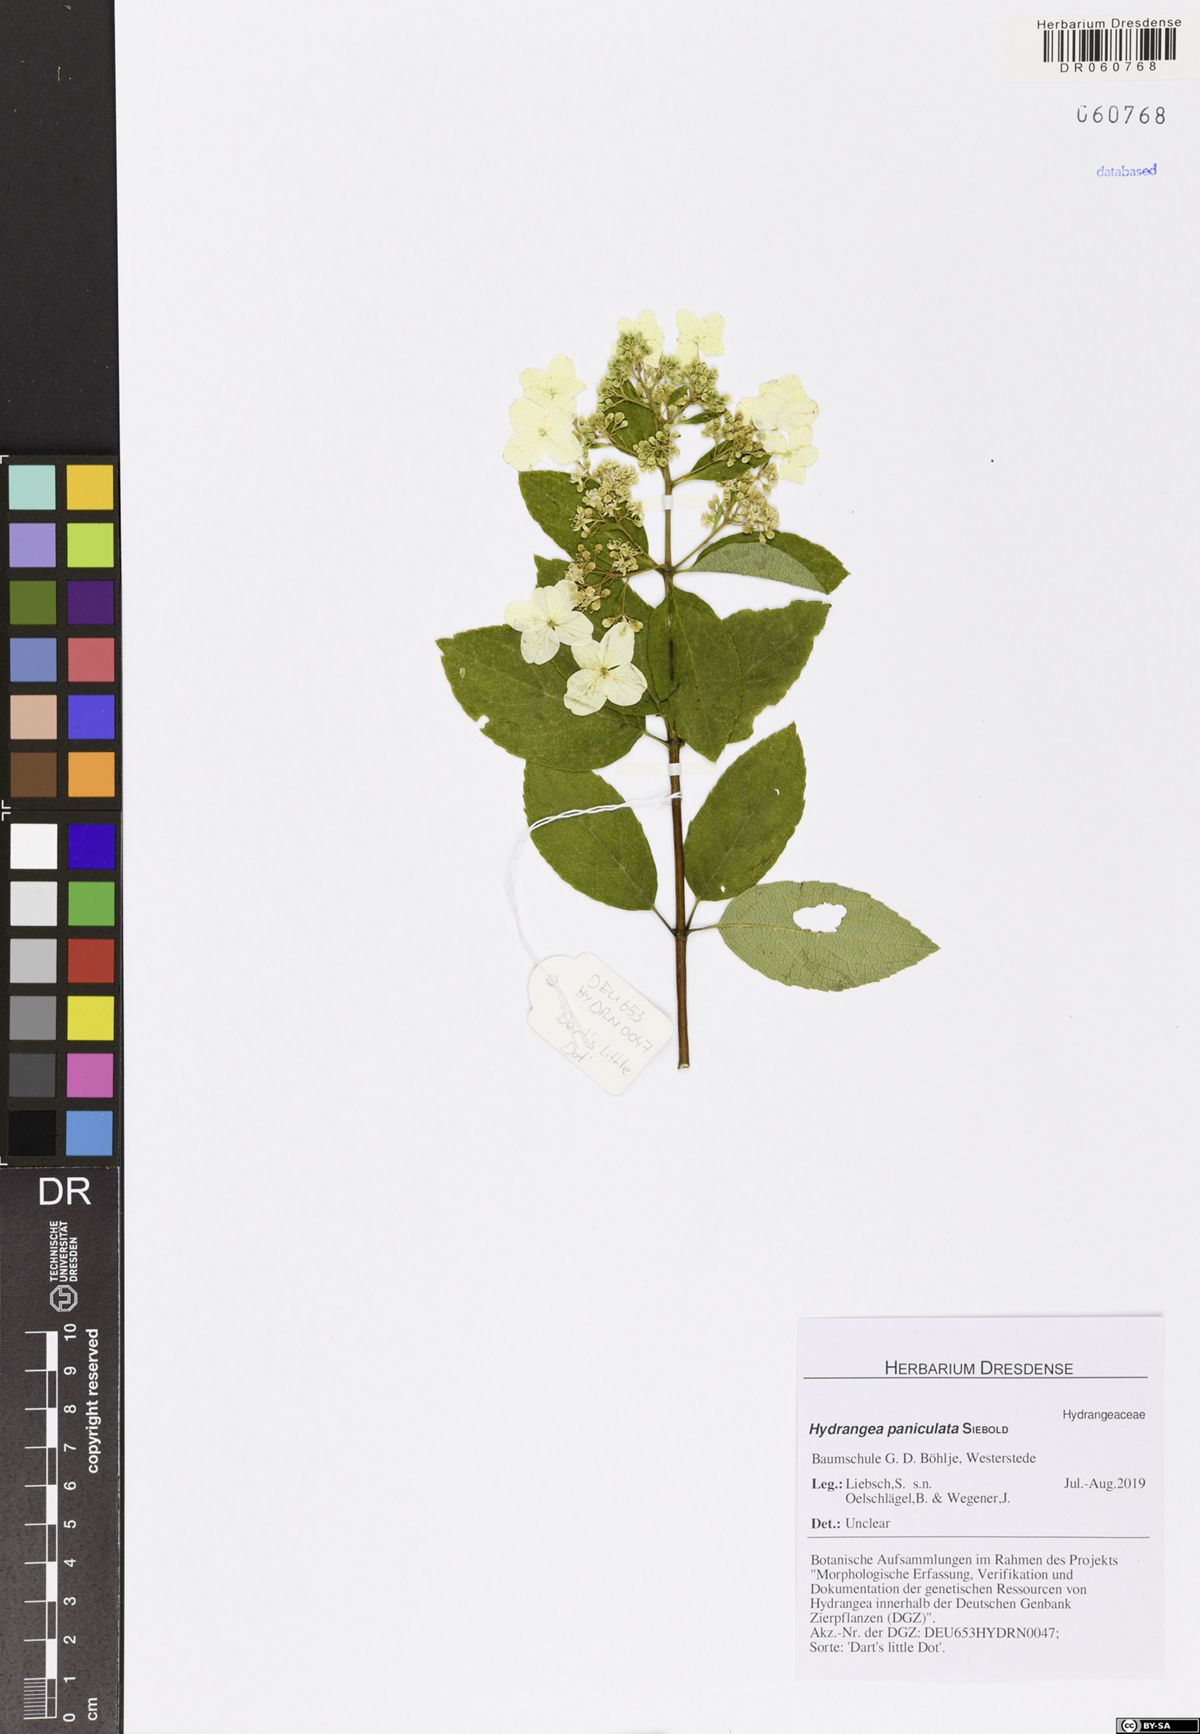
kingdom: Plantae
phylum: Tracheophyta
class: Magnoliopsida
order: Cornales
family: Hydrangeaceae
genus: Hydrangea
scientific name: Hydrangea paniculata
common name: Panicled hydrangea
